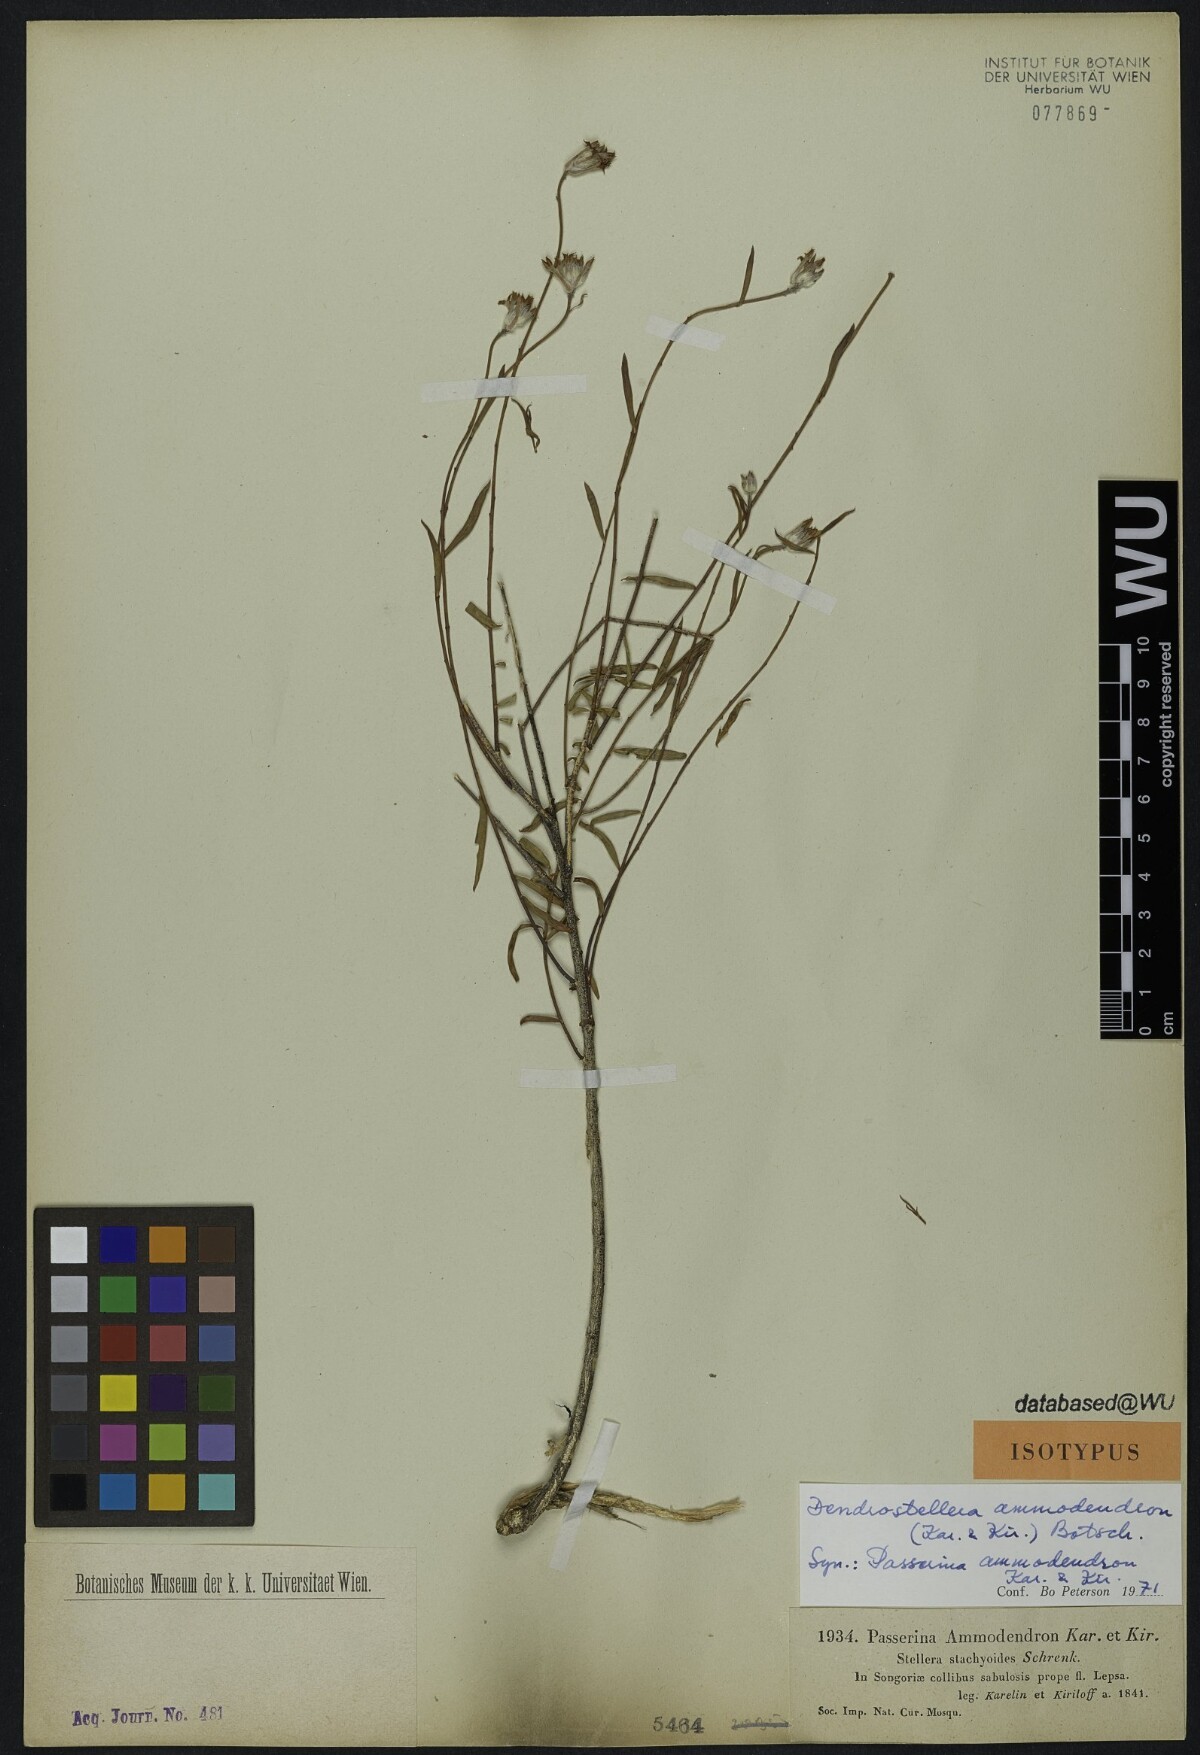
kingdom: Plantae
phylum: Tracheophyta
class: Magnoliopsida
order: Malvales
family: Thymelaeaceae
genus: Diarthron
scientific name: Diarthron ammodendron
